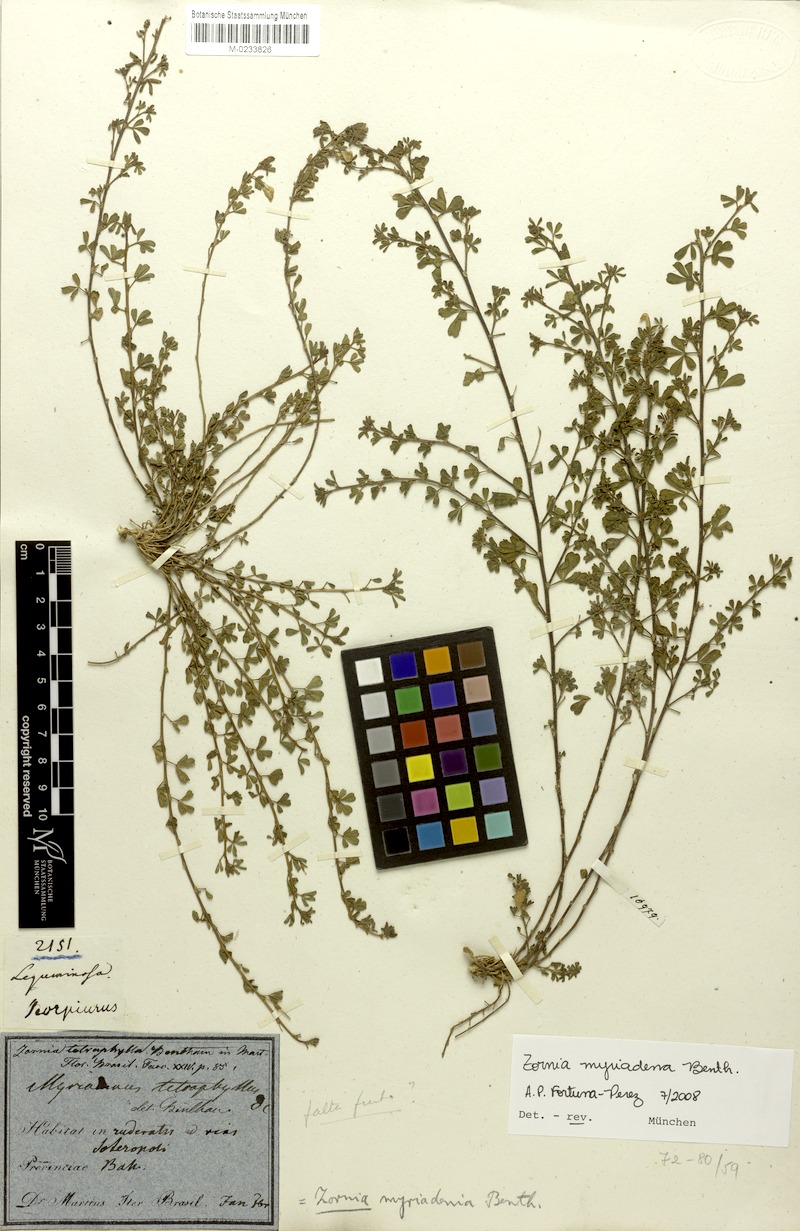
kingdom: Plantae
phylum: Tracheophyta
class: Magnoliopsida
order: Fabales
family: Fabaceae
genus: Zornia
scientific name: Zornia myriadena
